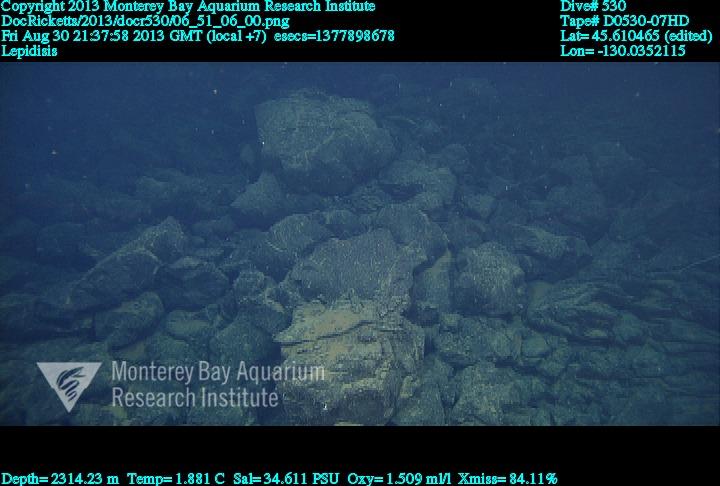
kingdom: Animalia
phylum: Cnidaria
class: Anthozoa
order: Scleralcyonacea
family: Keratoisididae
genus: Lepidisis
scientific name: Lepidisis
